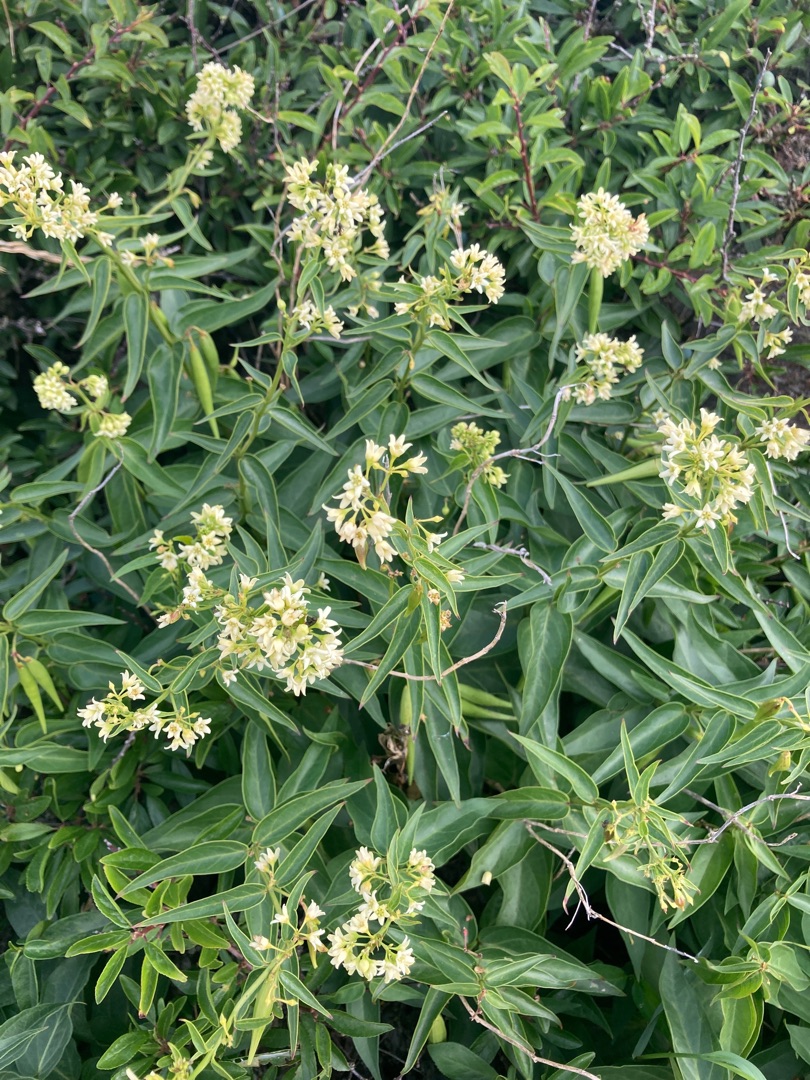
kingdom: Plantae
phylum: Tracheophyta
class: Magnoliopsida
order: Gentianales
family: Apocynaceae
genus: Vincetoxicum
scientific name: Vincetoxicum hirundinaria
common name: Svalerod
